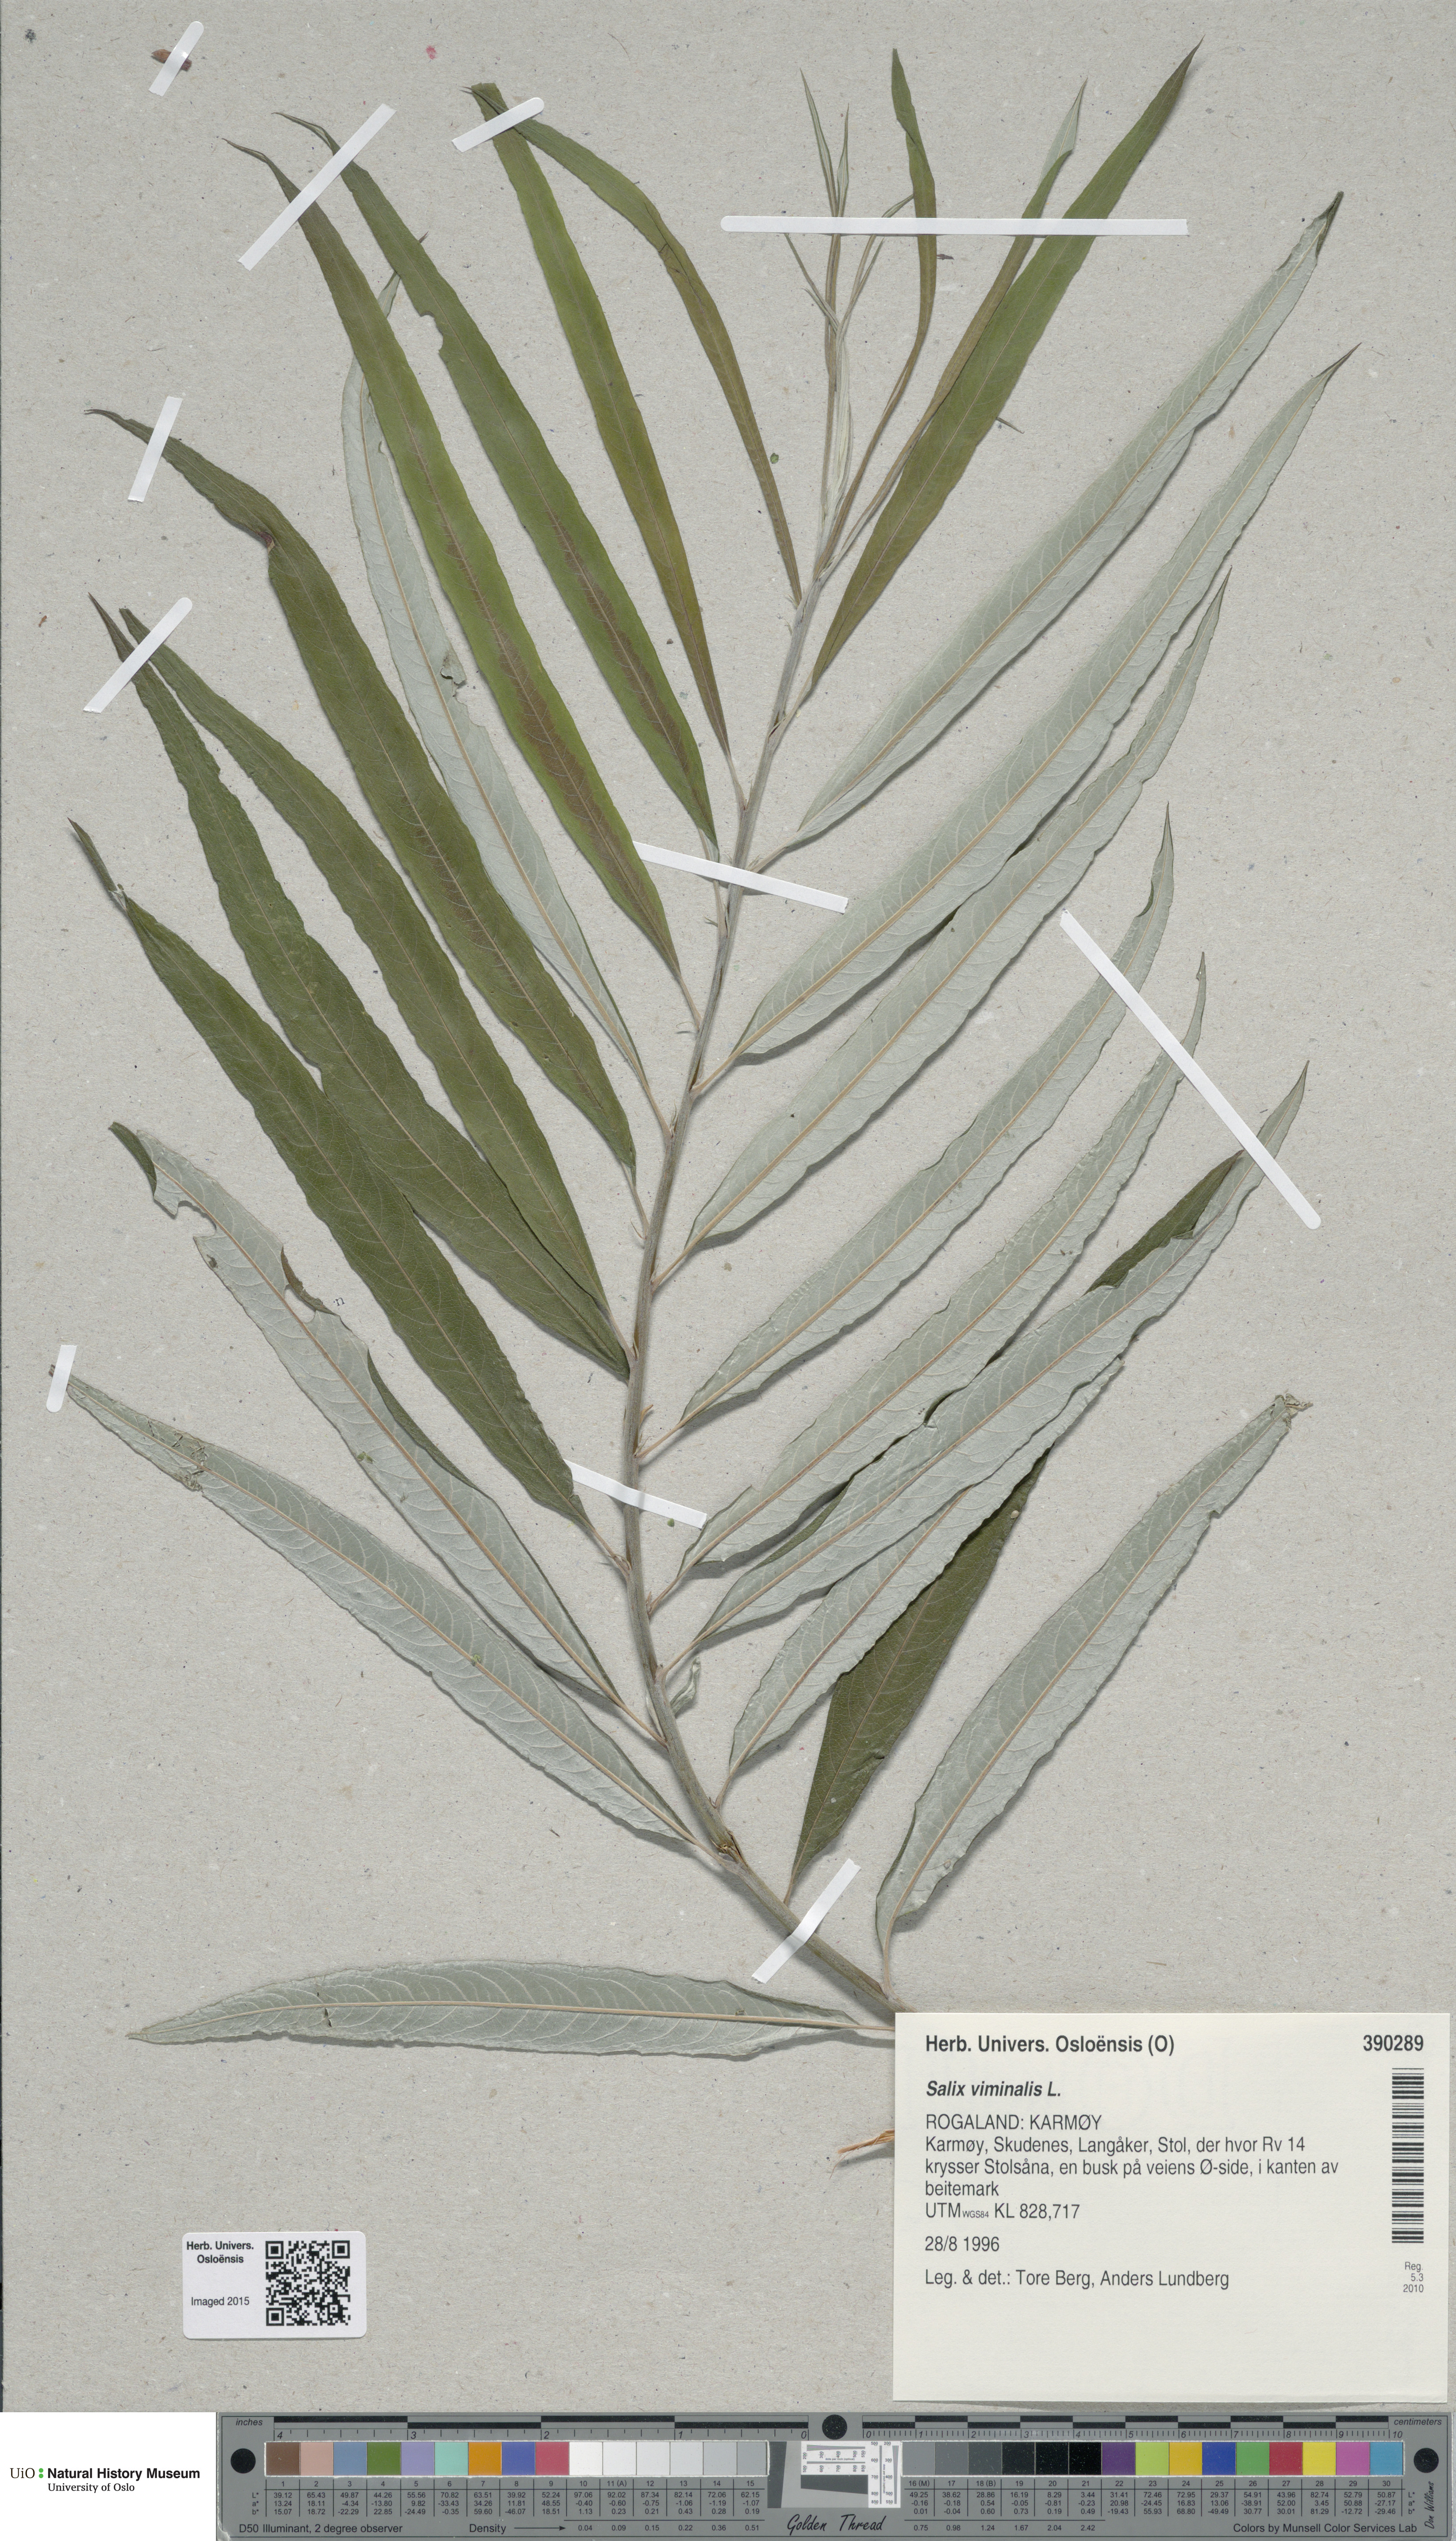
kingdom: Plantae
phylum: Tracheophyta
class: Magnoliopsida
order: Malpighiales
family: Salicaceae
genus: Salix
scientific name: Salix viminalis
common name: Osier
